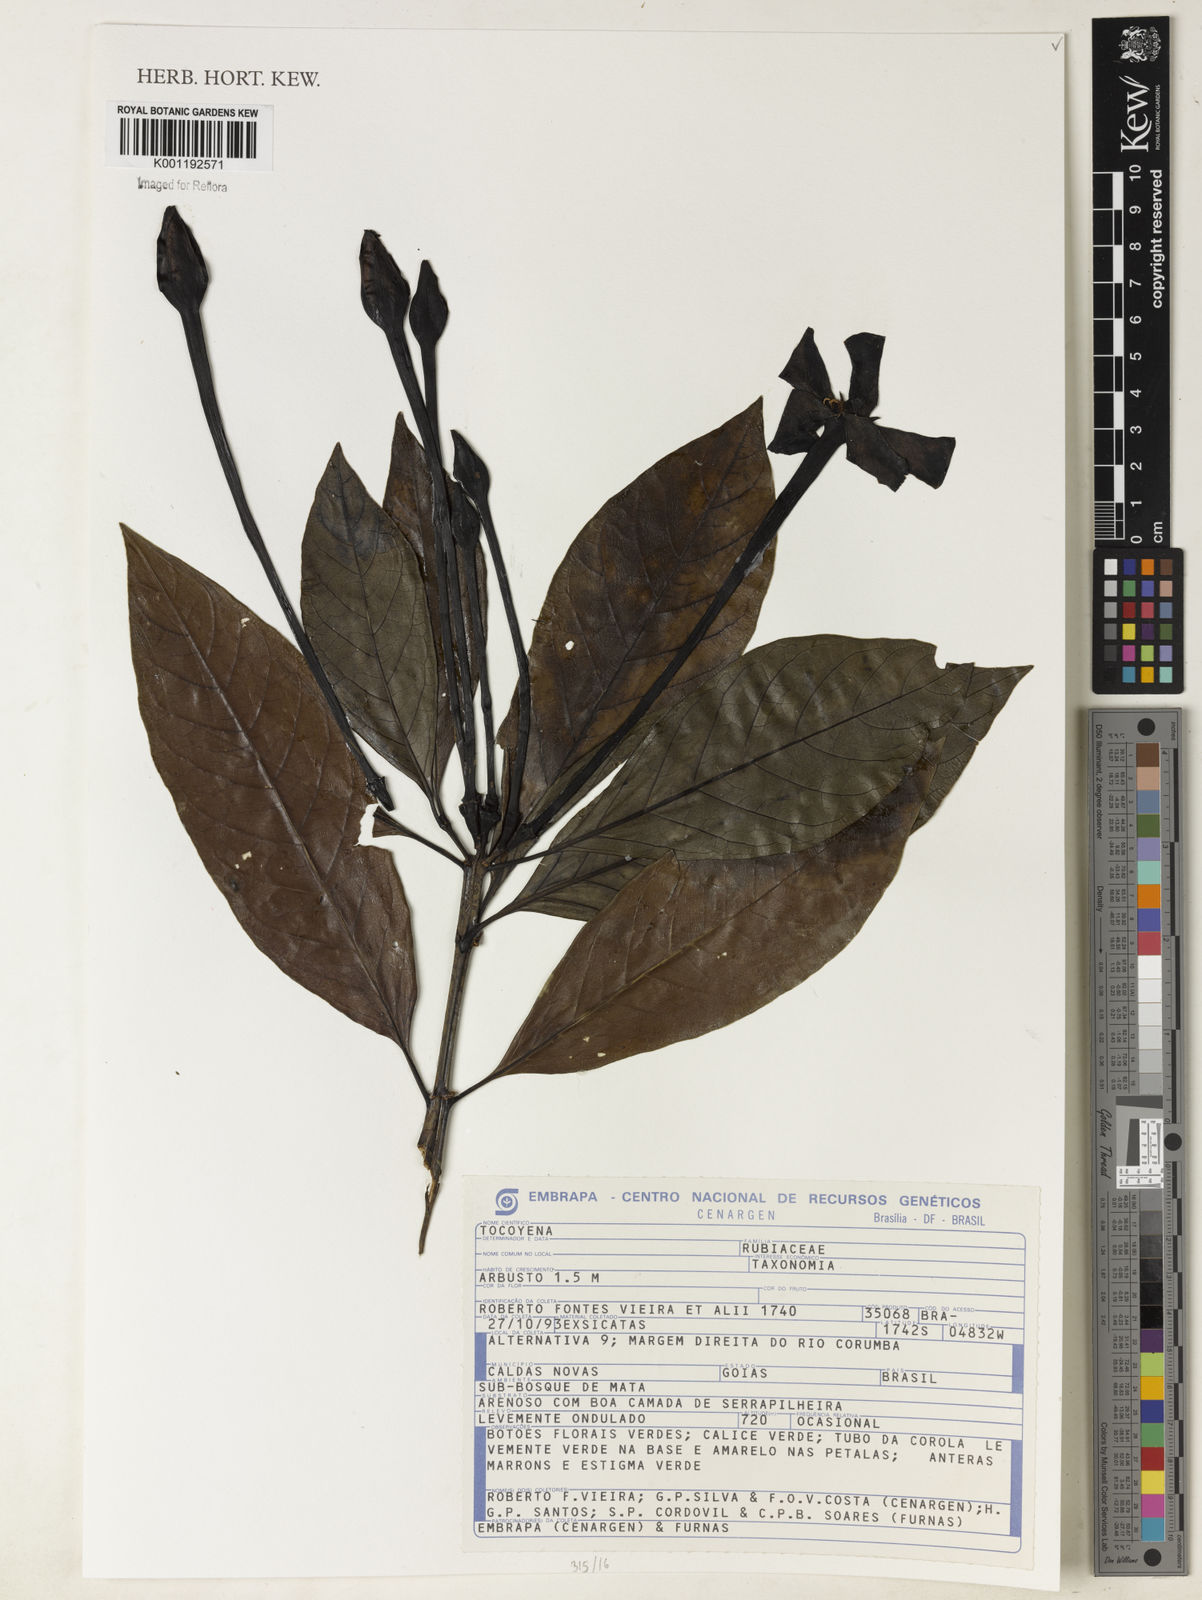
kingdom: Plantae
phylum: Tracheophyta
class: Magnoliopsida
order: Gentianales
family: Rubiaceae
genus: Tocoyena
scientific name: Tocoyena
